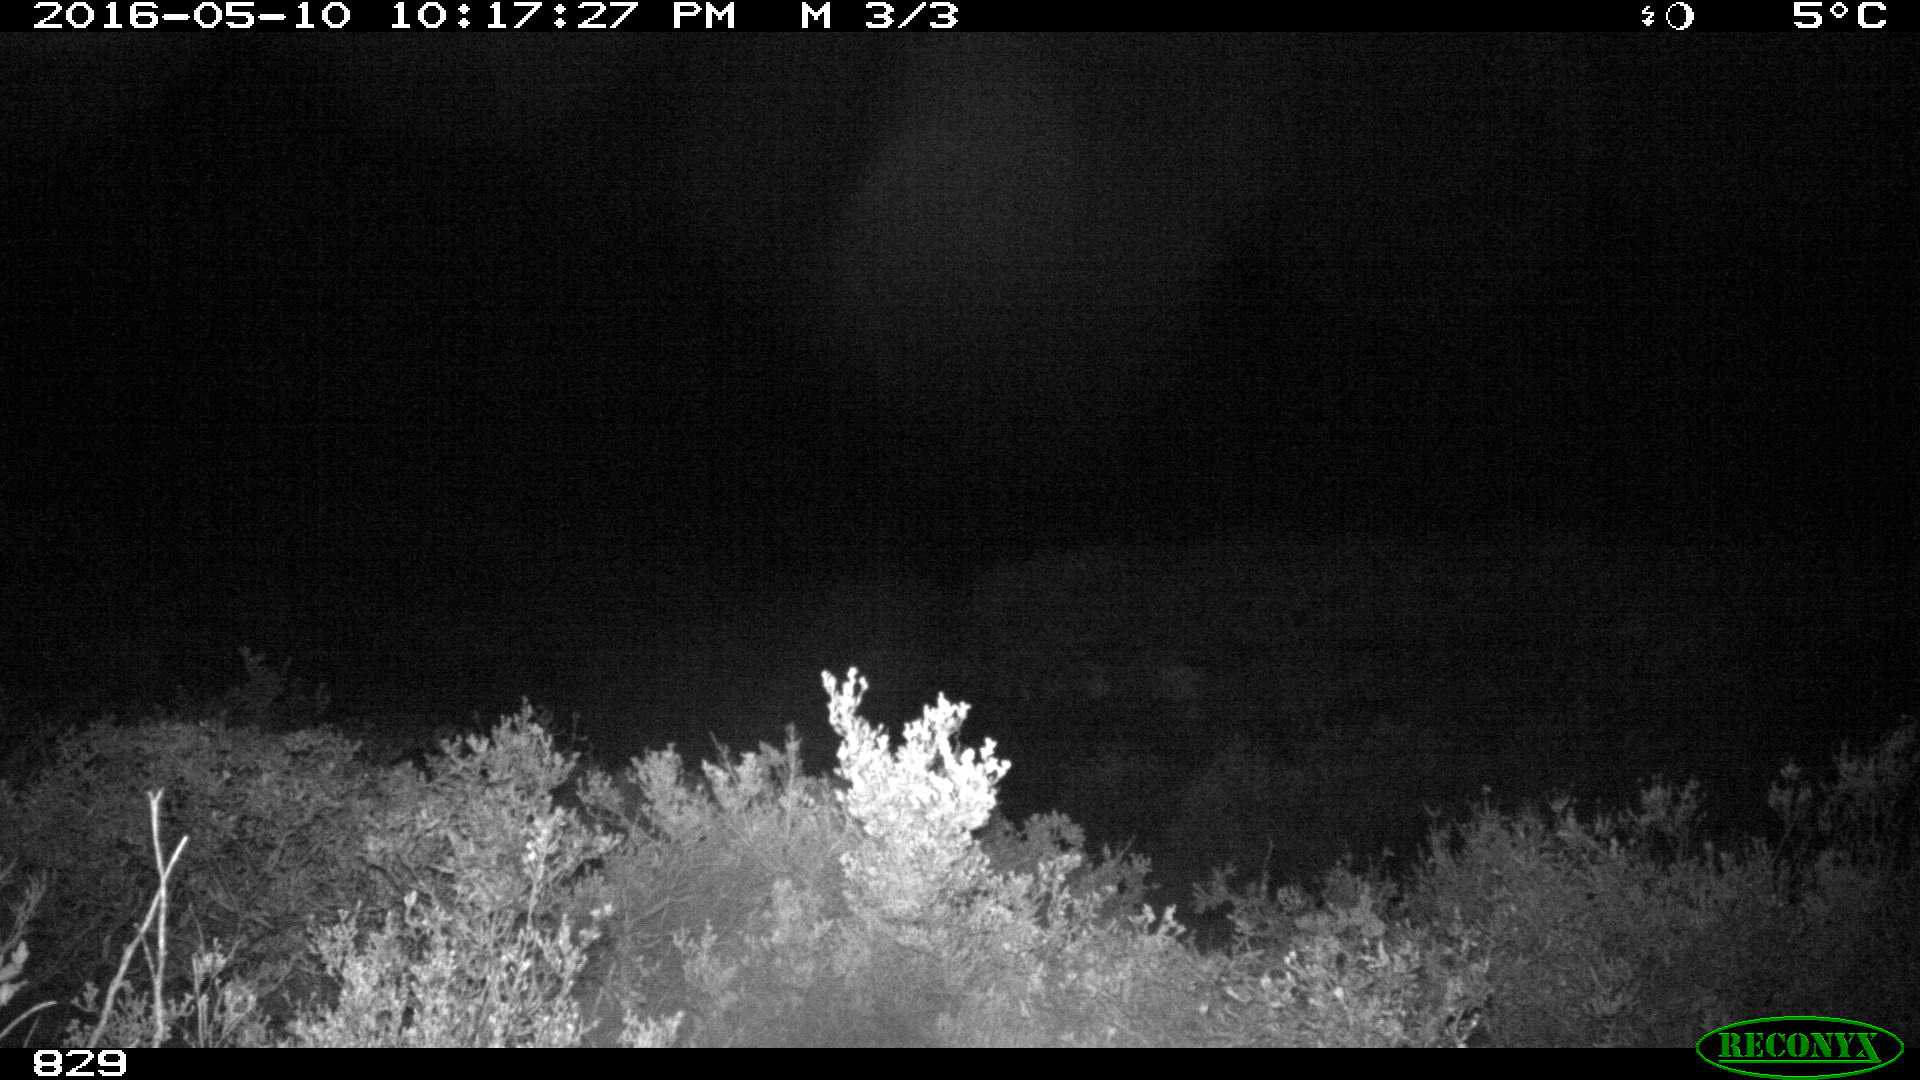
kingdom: Animalia
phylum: Chordata
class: Mammalia
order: Artiodactyla
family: Cervidae
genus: Capreolus
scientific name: Capreolus capreolus
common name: Western roe deer
